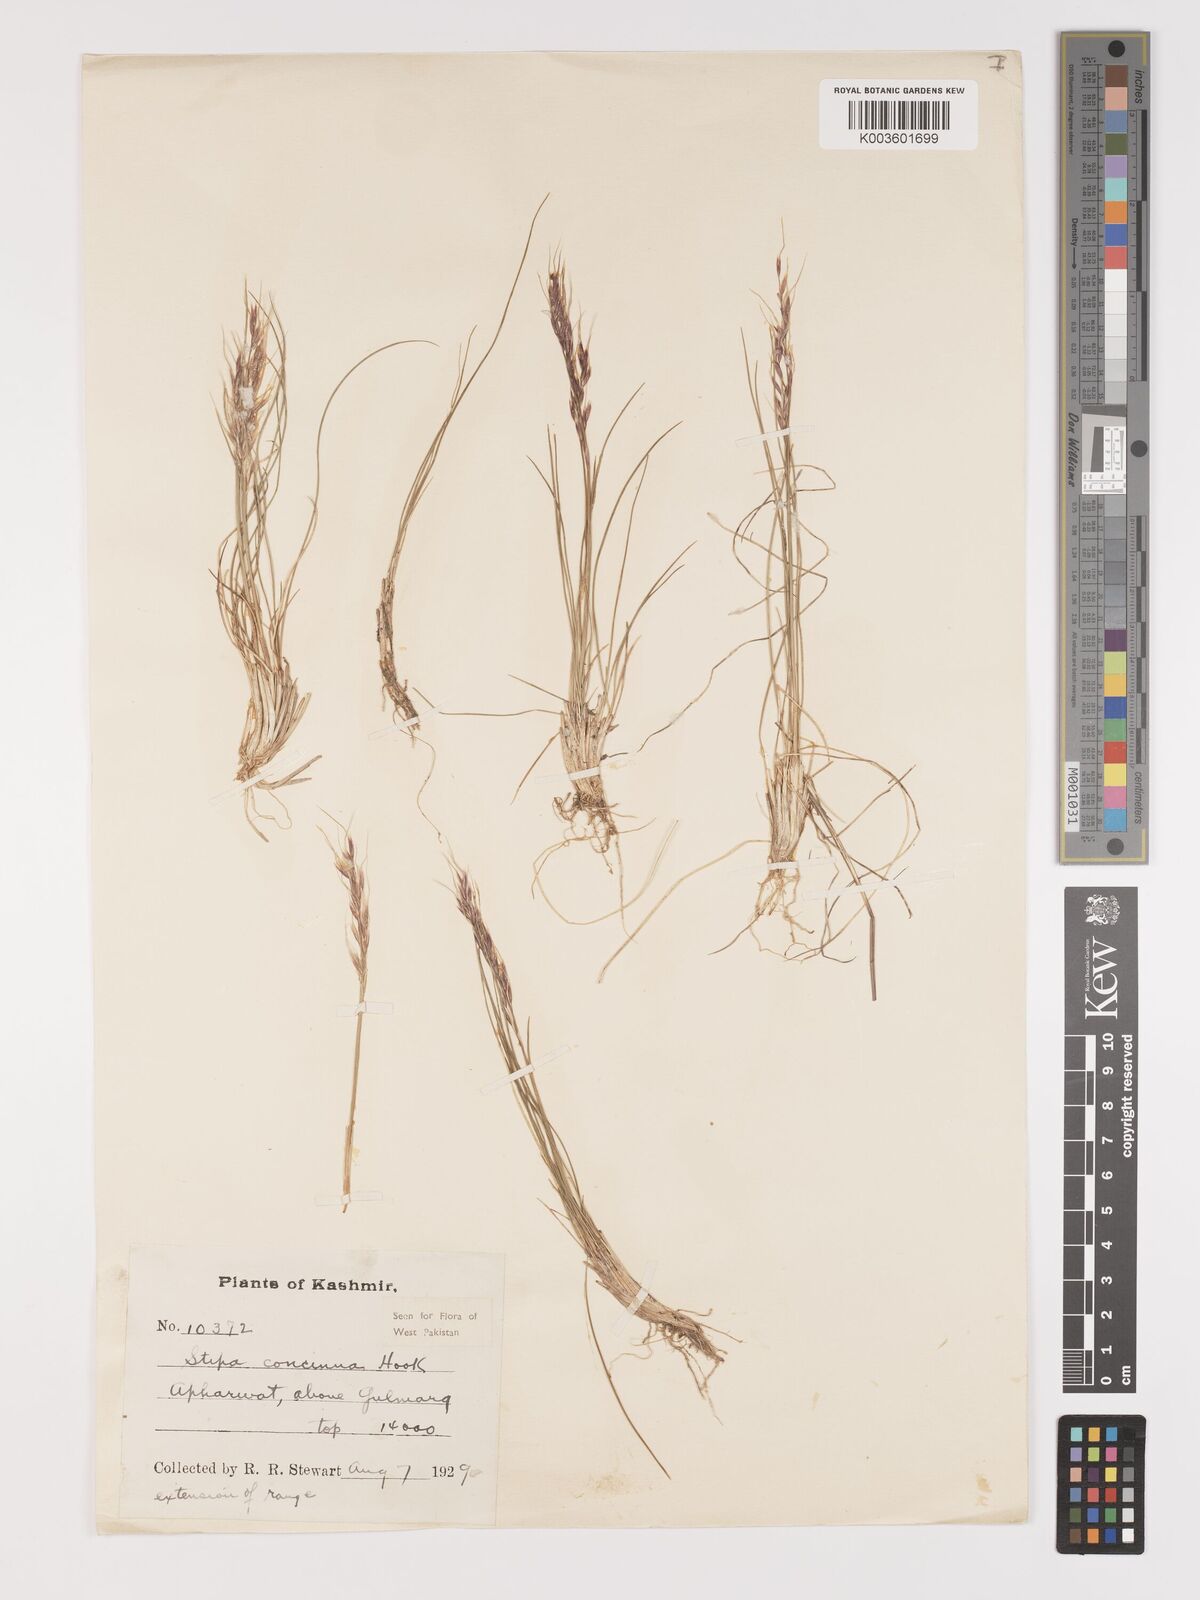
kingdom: Plantae
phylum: Tracheophyta
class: Liliopsida
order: Poales
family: Poaceae
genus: Ptilagrostis
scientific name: Ptilagrostis concinna
